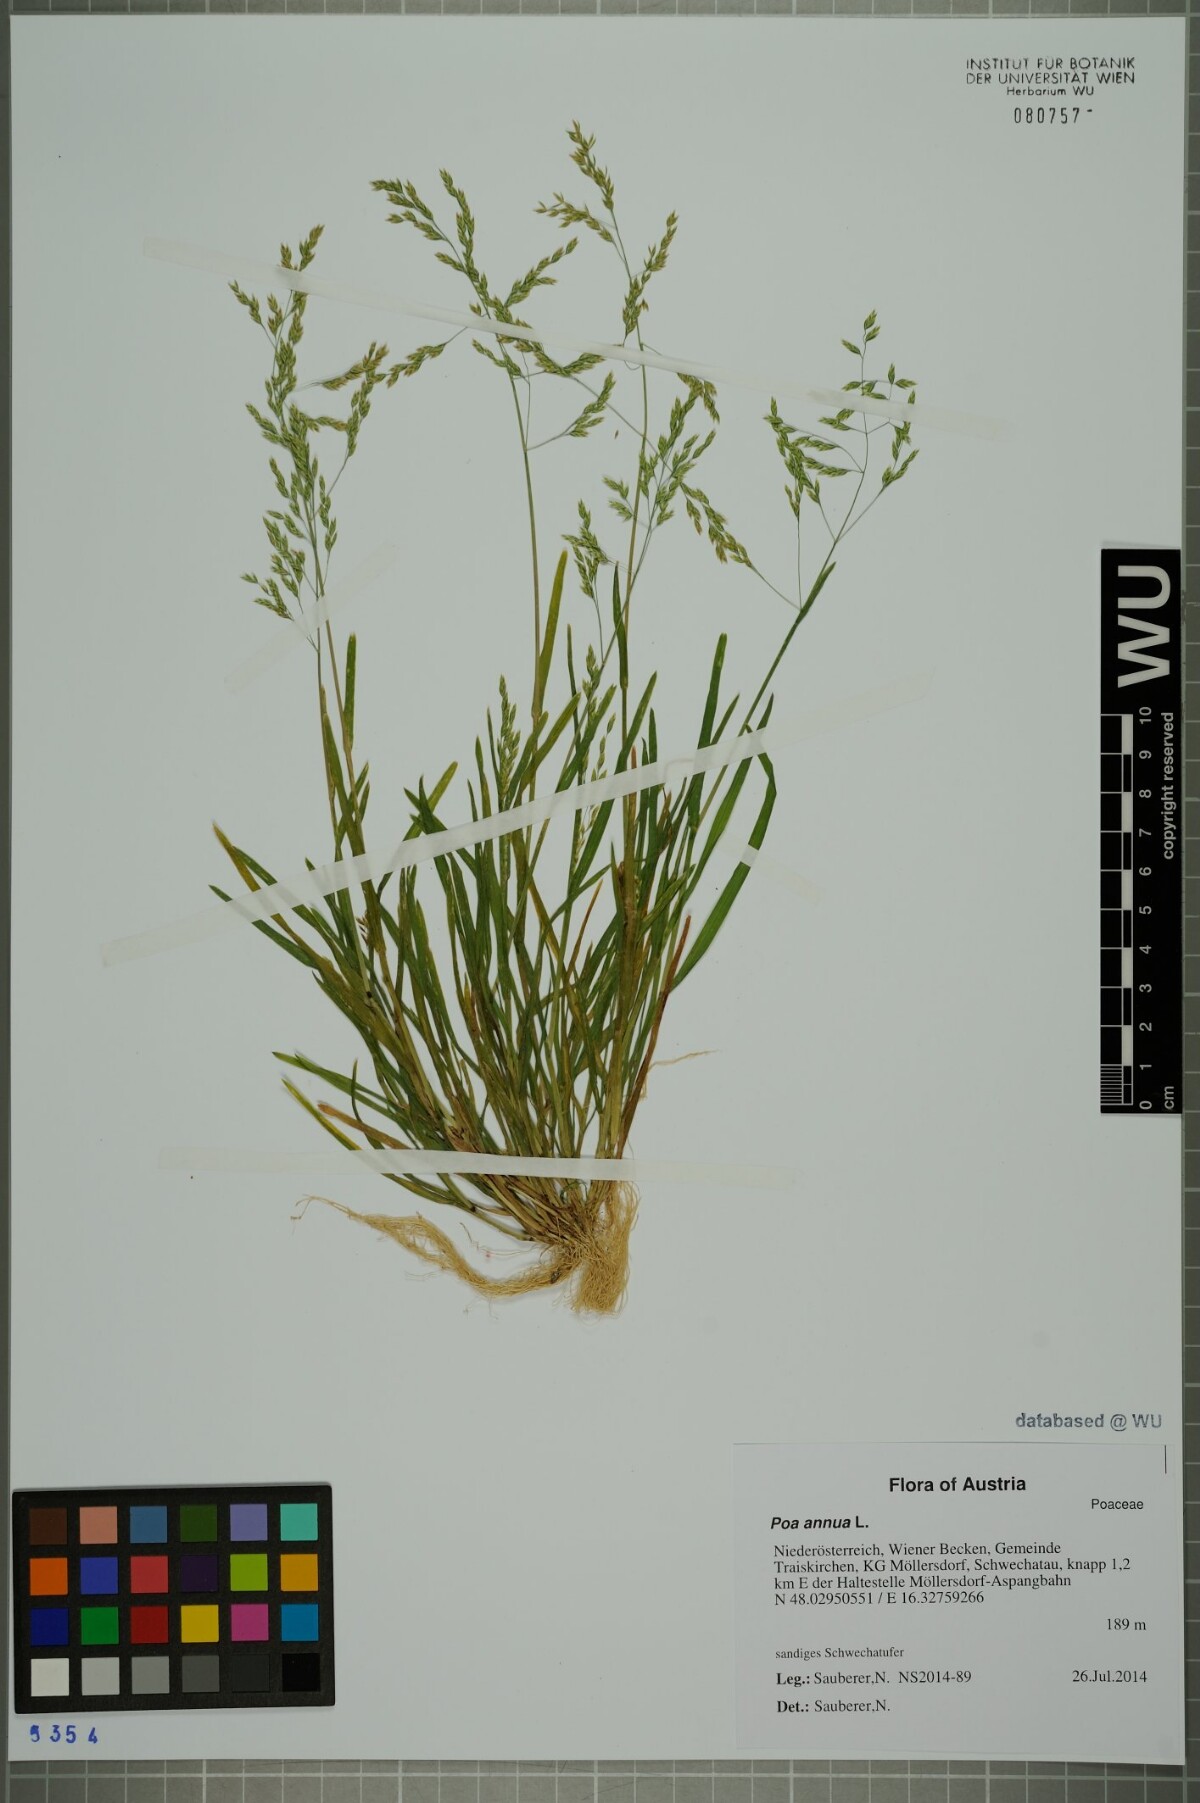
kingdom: Plantae
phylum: Tracheophyta
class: Liliopsida
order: Poales
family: Poaceae
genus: Poa
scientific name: Poa annua
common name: Annual bluegrass
